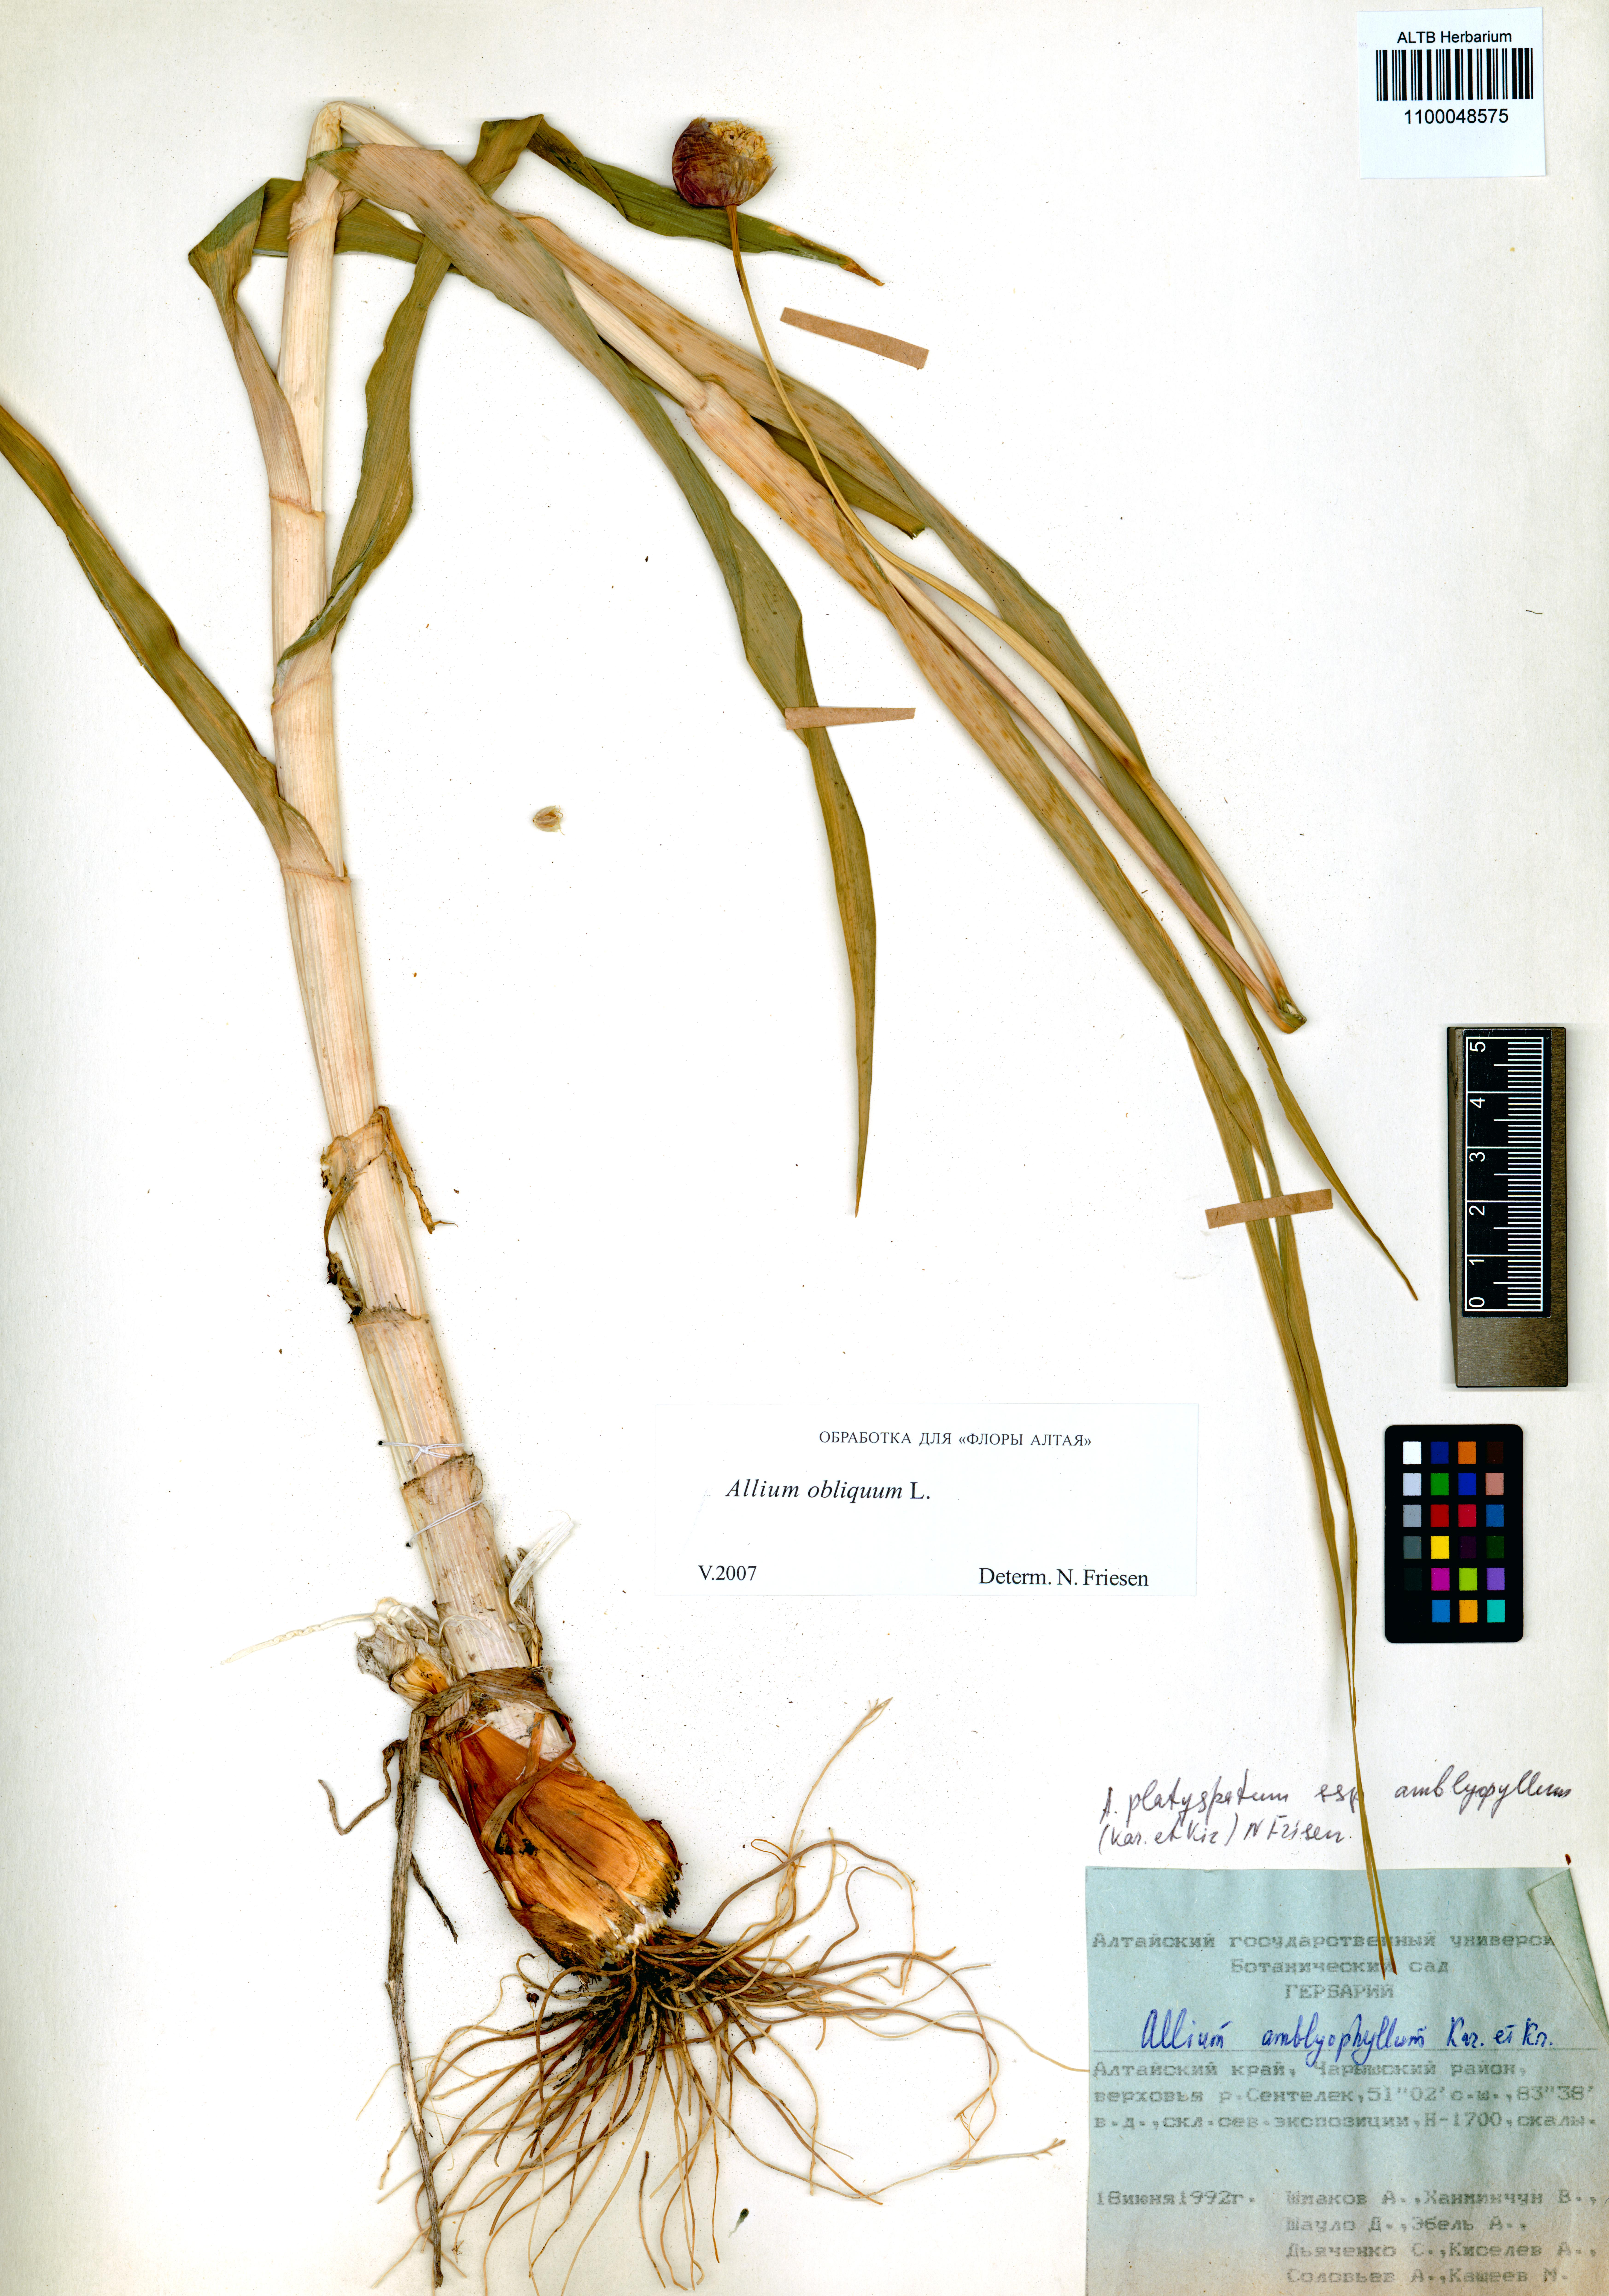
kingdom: Plantae
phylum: Tracheophyta
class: Liliopsida
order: Asparagales
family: Amaryllidaceae
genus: Allium
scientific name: Allium obliquum
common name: Oblique onion
